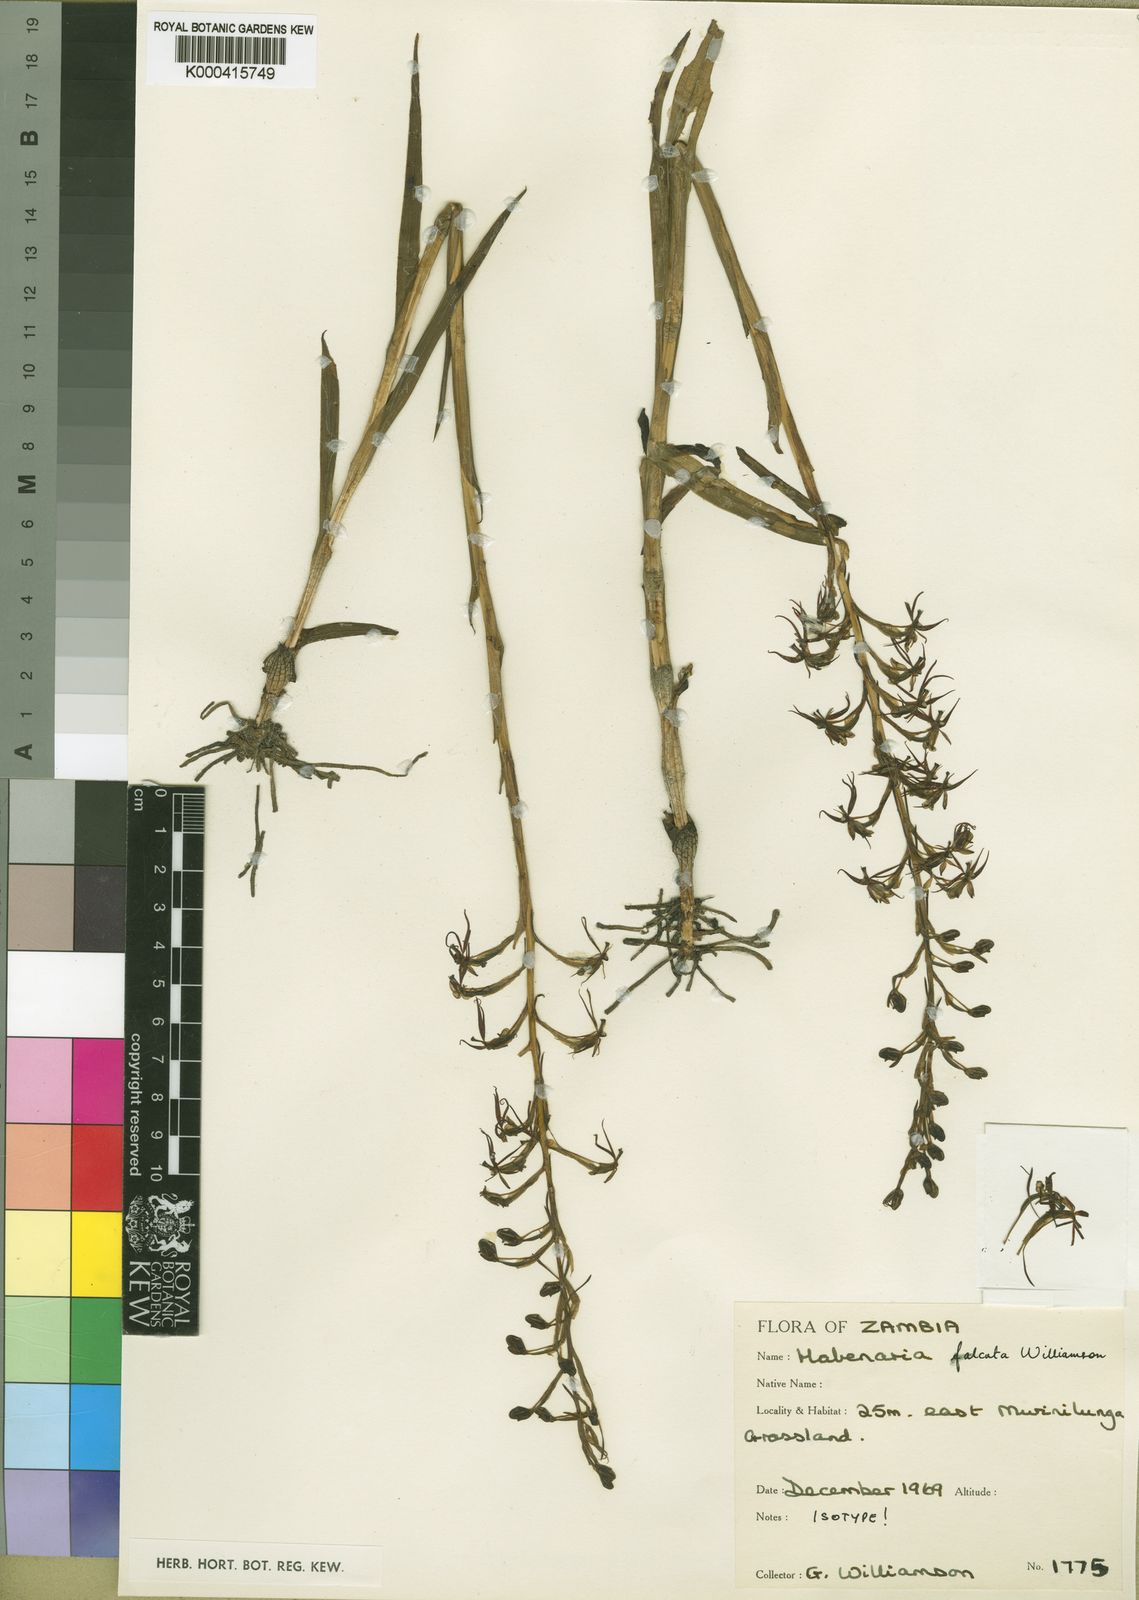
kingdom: Plantae
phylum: Tracheophyta
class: Liliopsida
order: Asparagales
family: Orchidaceae
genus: Habenaria
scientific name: Habenaria falcata
